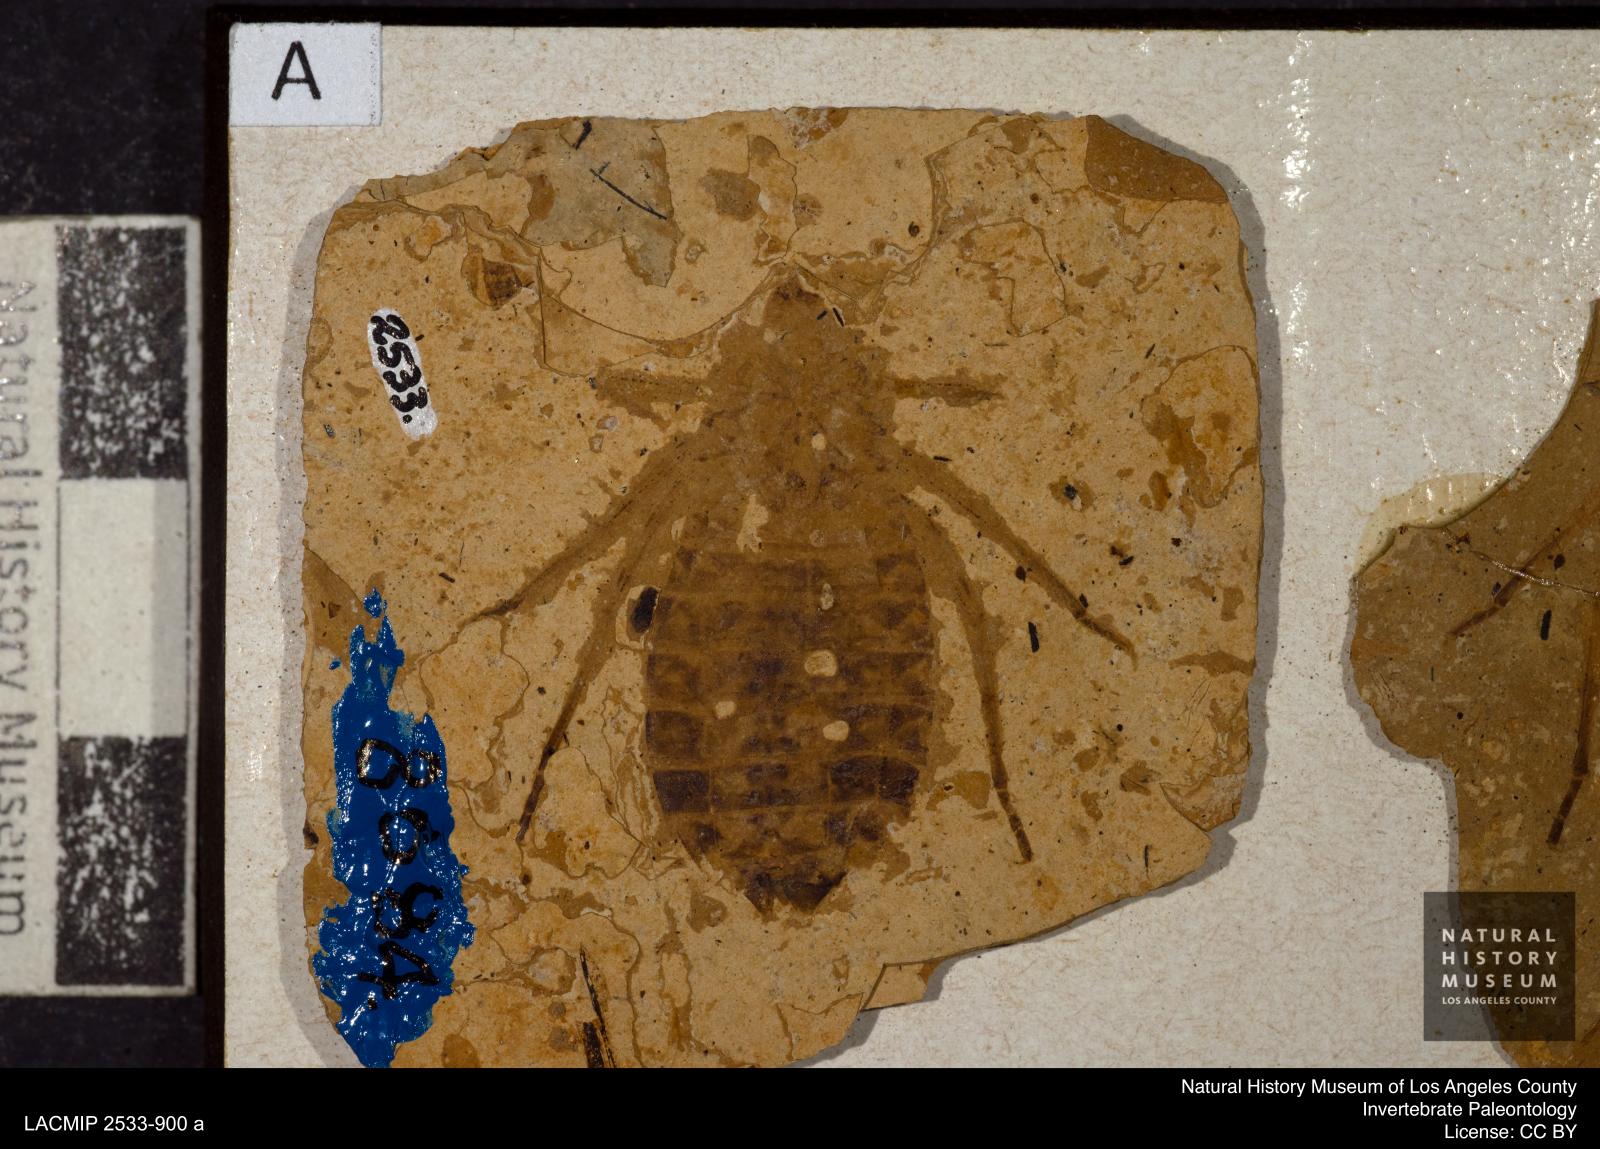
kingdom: Animalia
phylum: Arthropoda
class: Insecta
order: Odonata
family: Libellulidae
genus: Libellula
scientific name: Libellula
